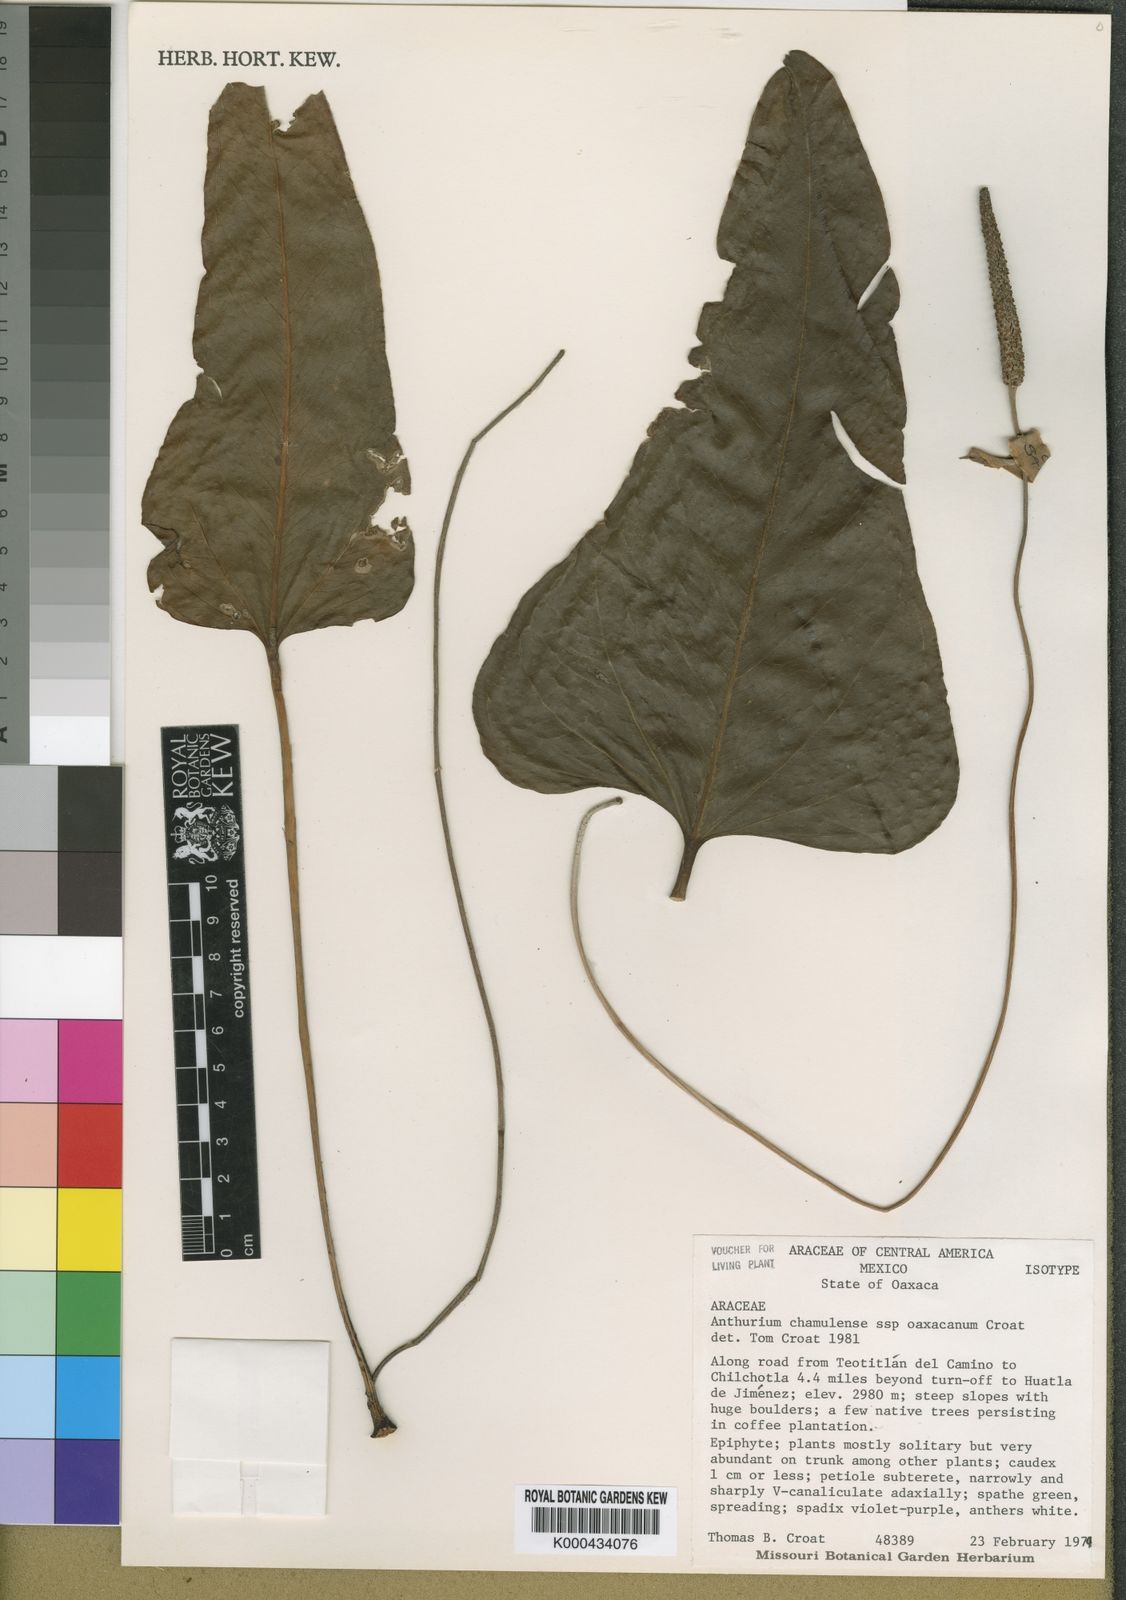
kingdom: Plantae
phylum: Tracheophyta
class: Liliopsida
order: Alismatales
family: Araceae
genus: Anthurium
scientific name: Anthurium chamulense
